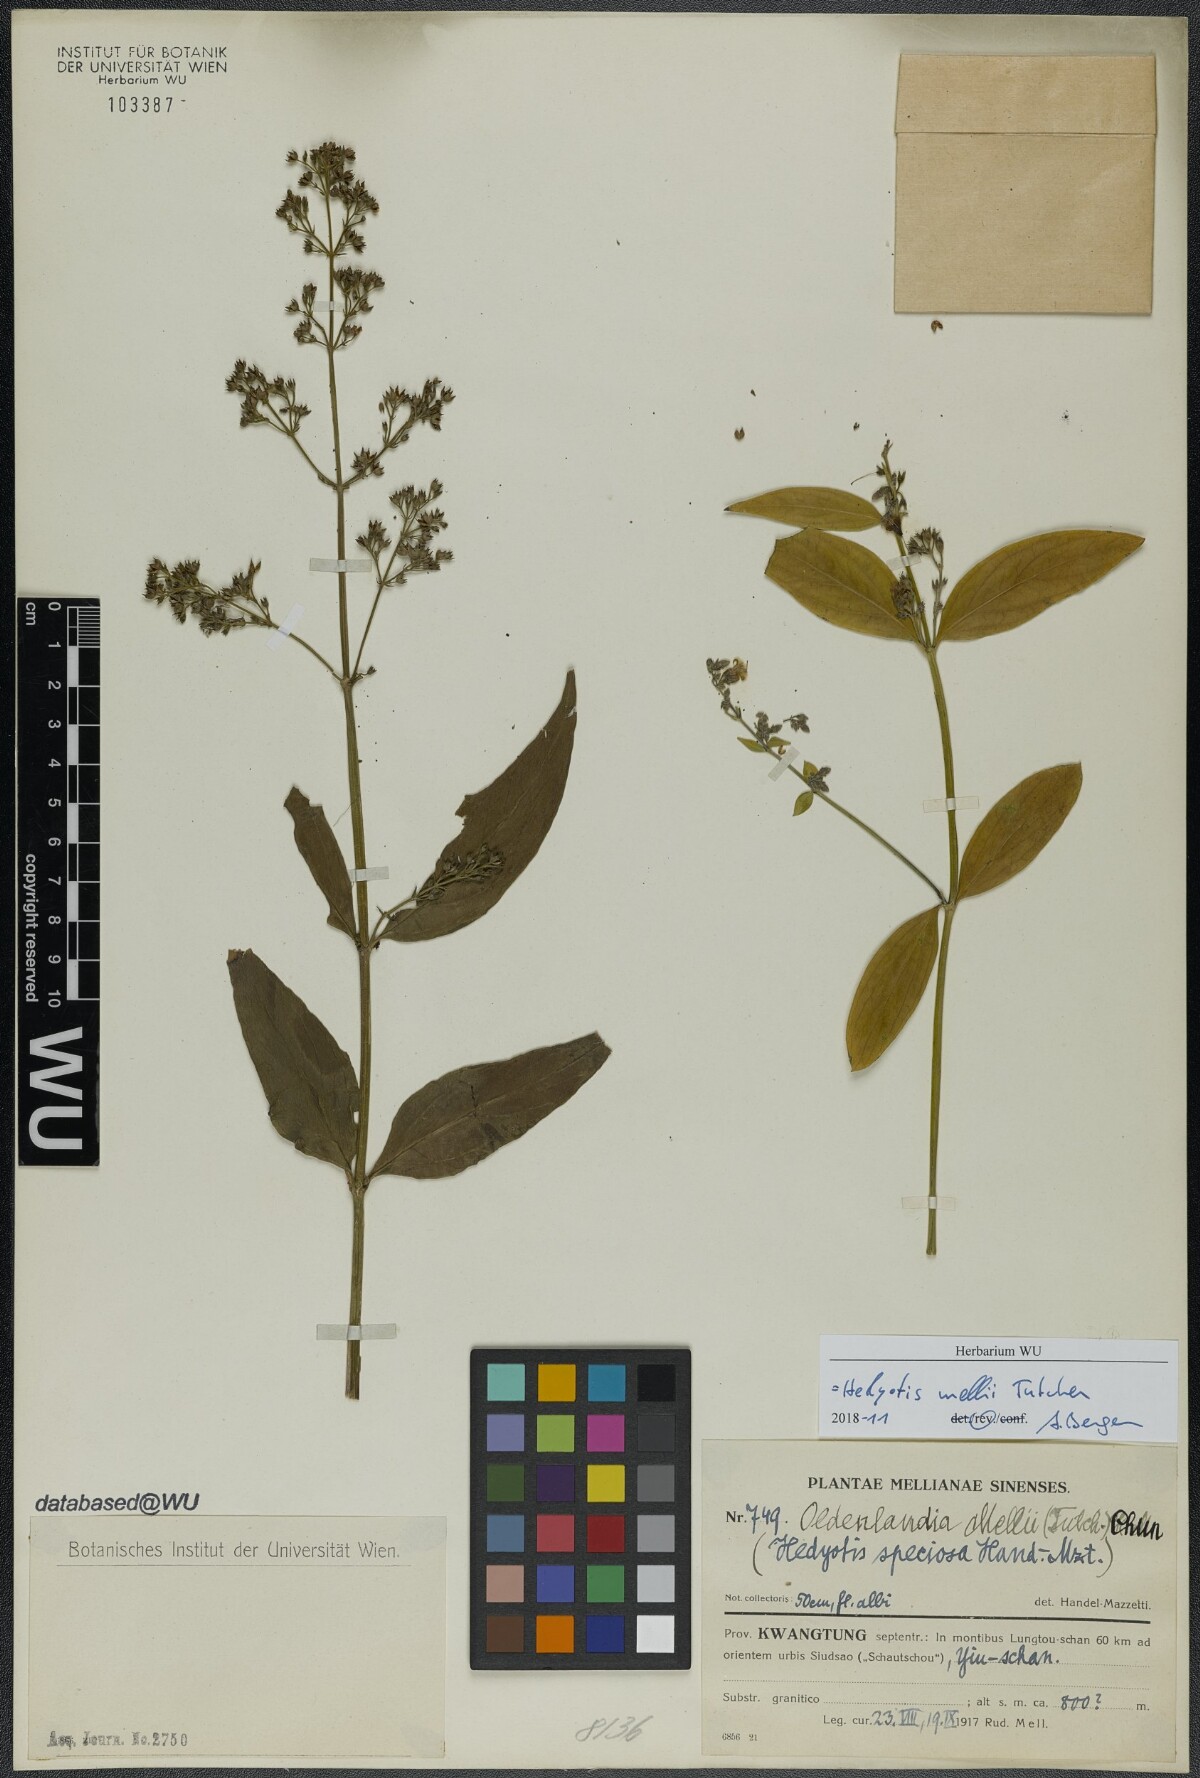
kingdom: Plantae
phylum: Tracheophyta
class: Magnoliopsida
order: Gentianales
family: Rubiaceae
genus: Hedyotis
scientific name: Hedyotis matthewii
